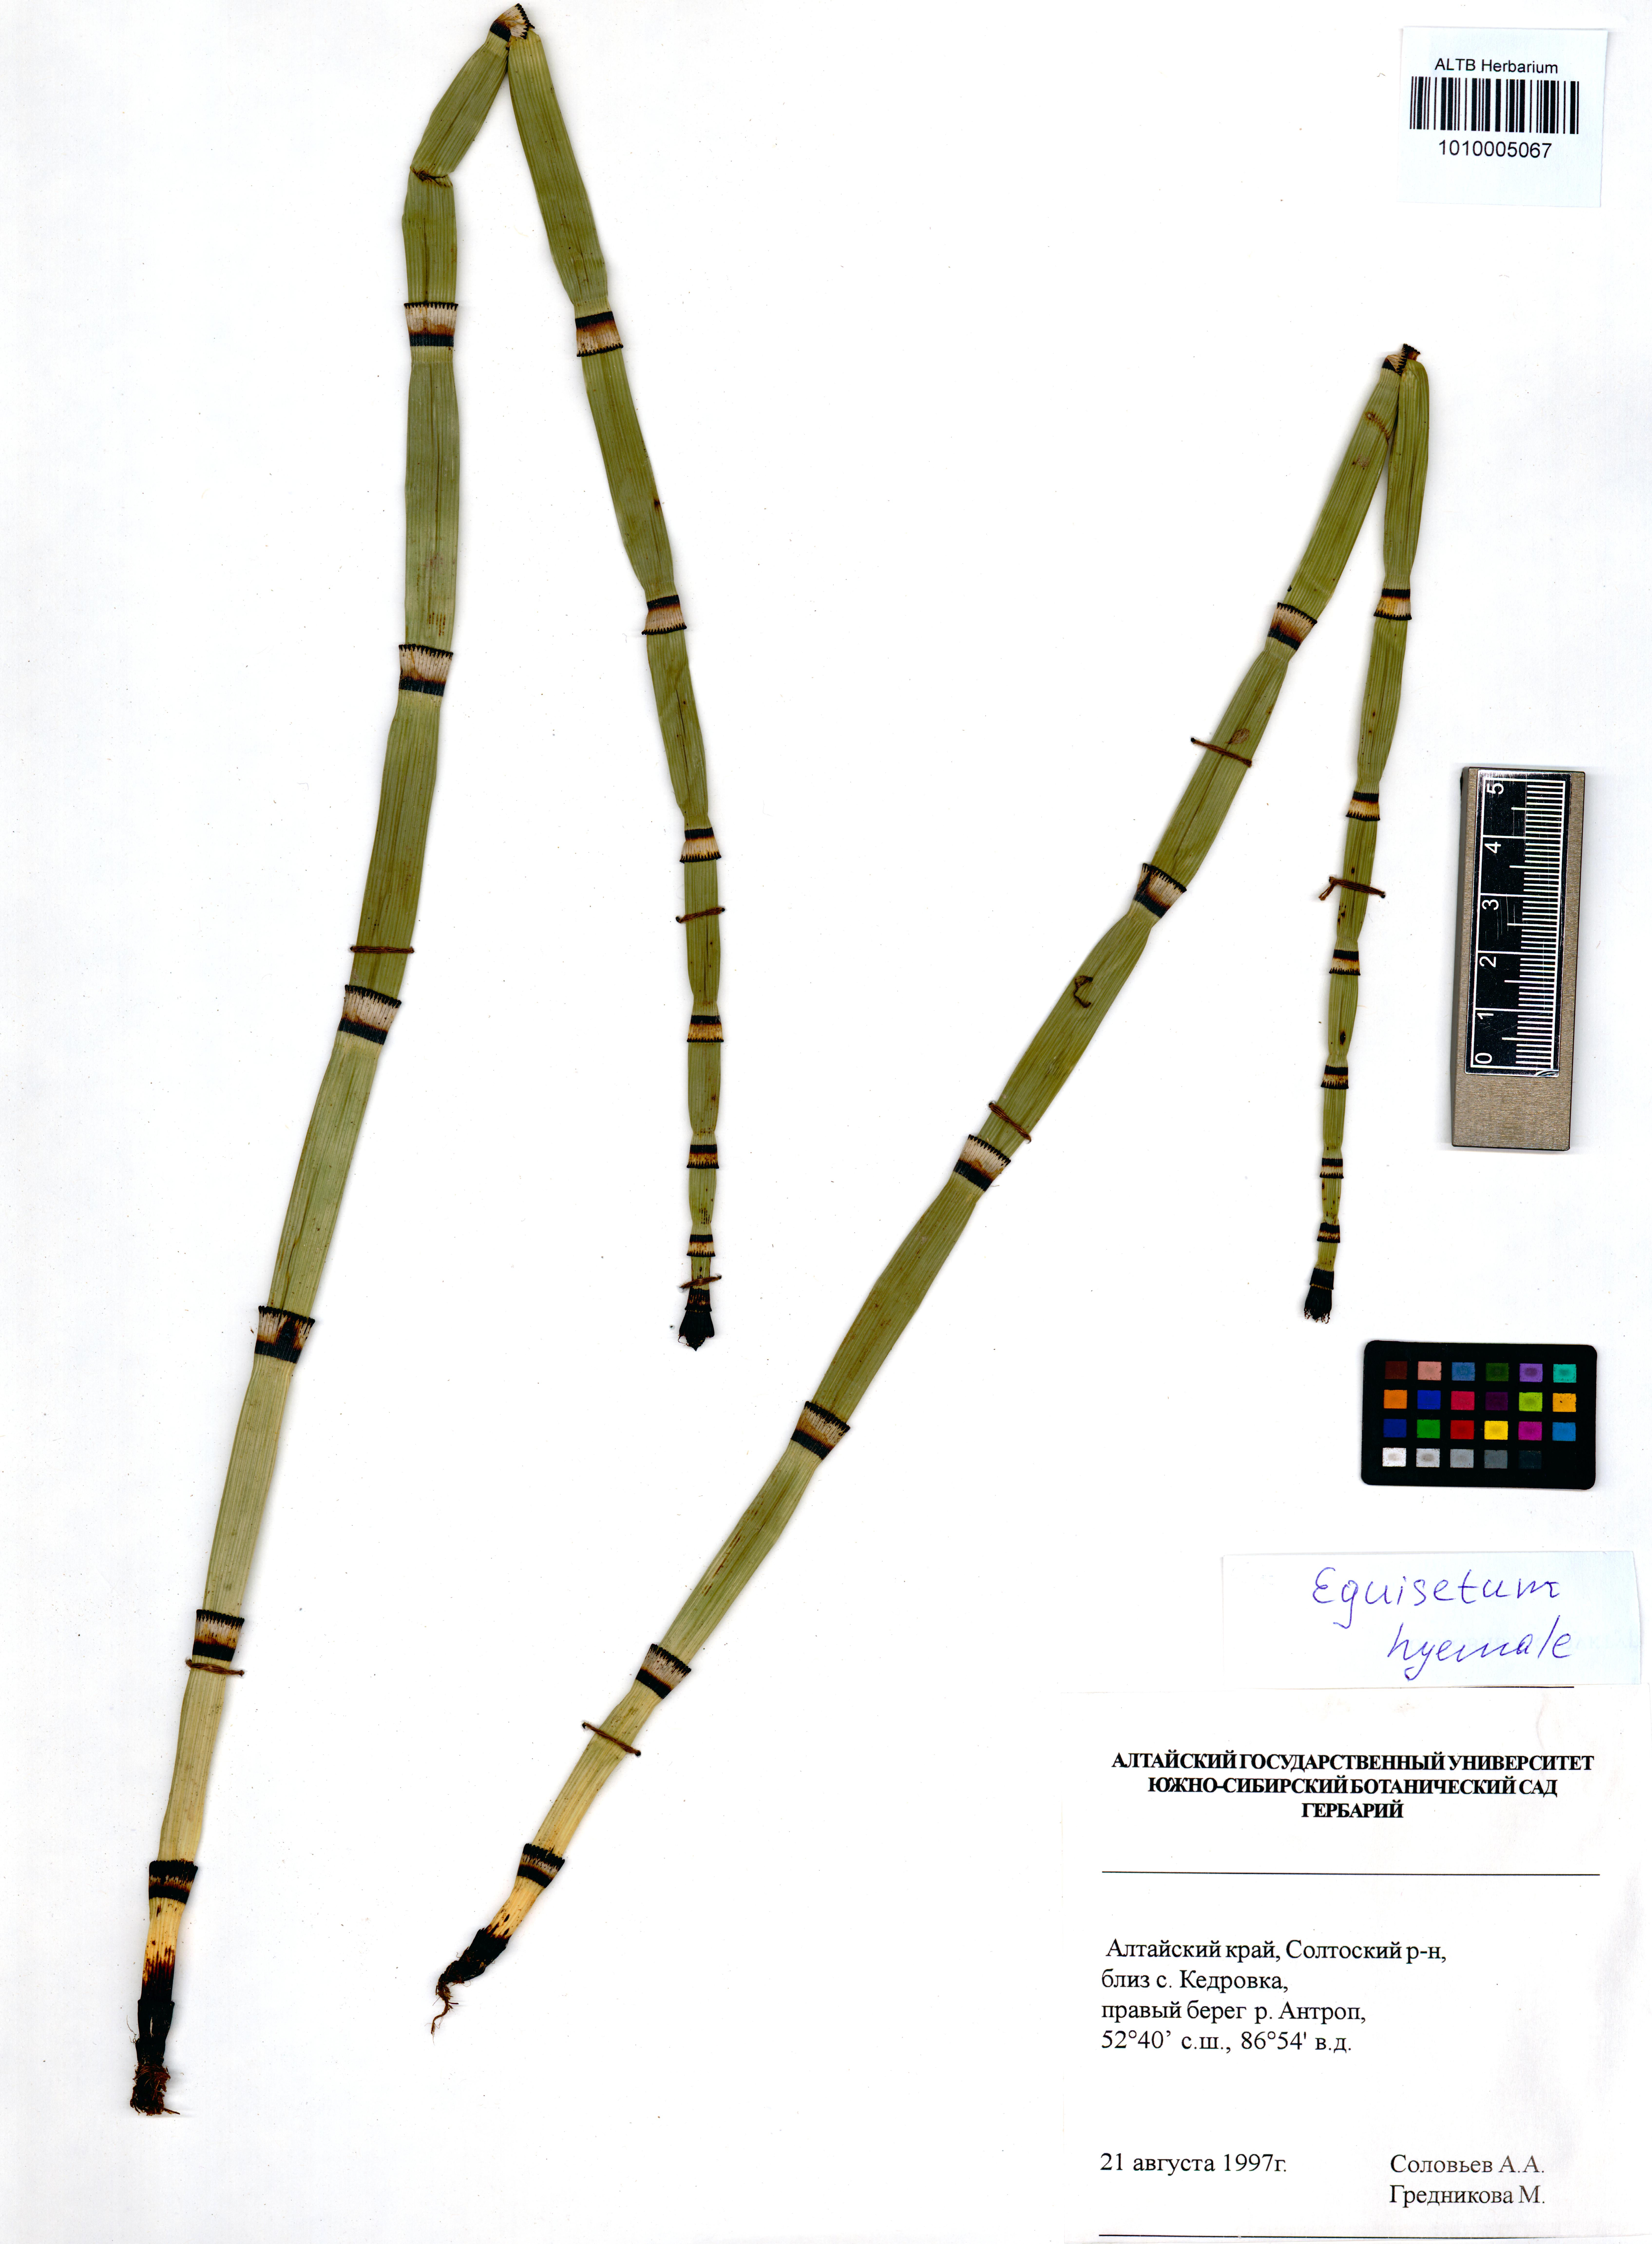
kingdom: Plantae
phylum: Tracheophyta
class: Polypodiopsida
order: Equisetales
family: Equisetaceae
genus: Equisetum
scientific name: Equisetum hyemale
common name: Rough horsetail
